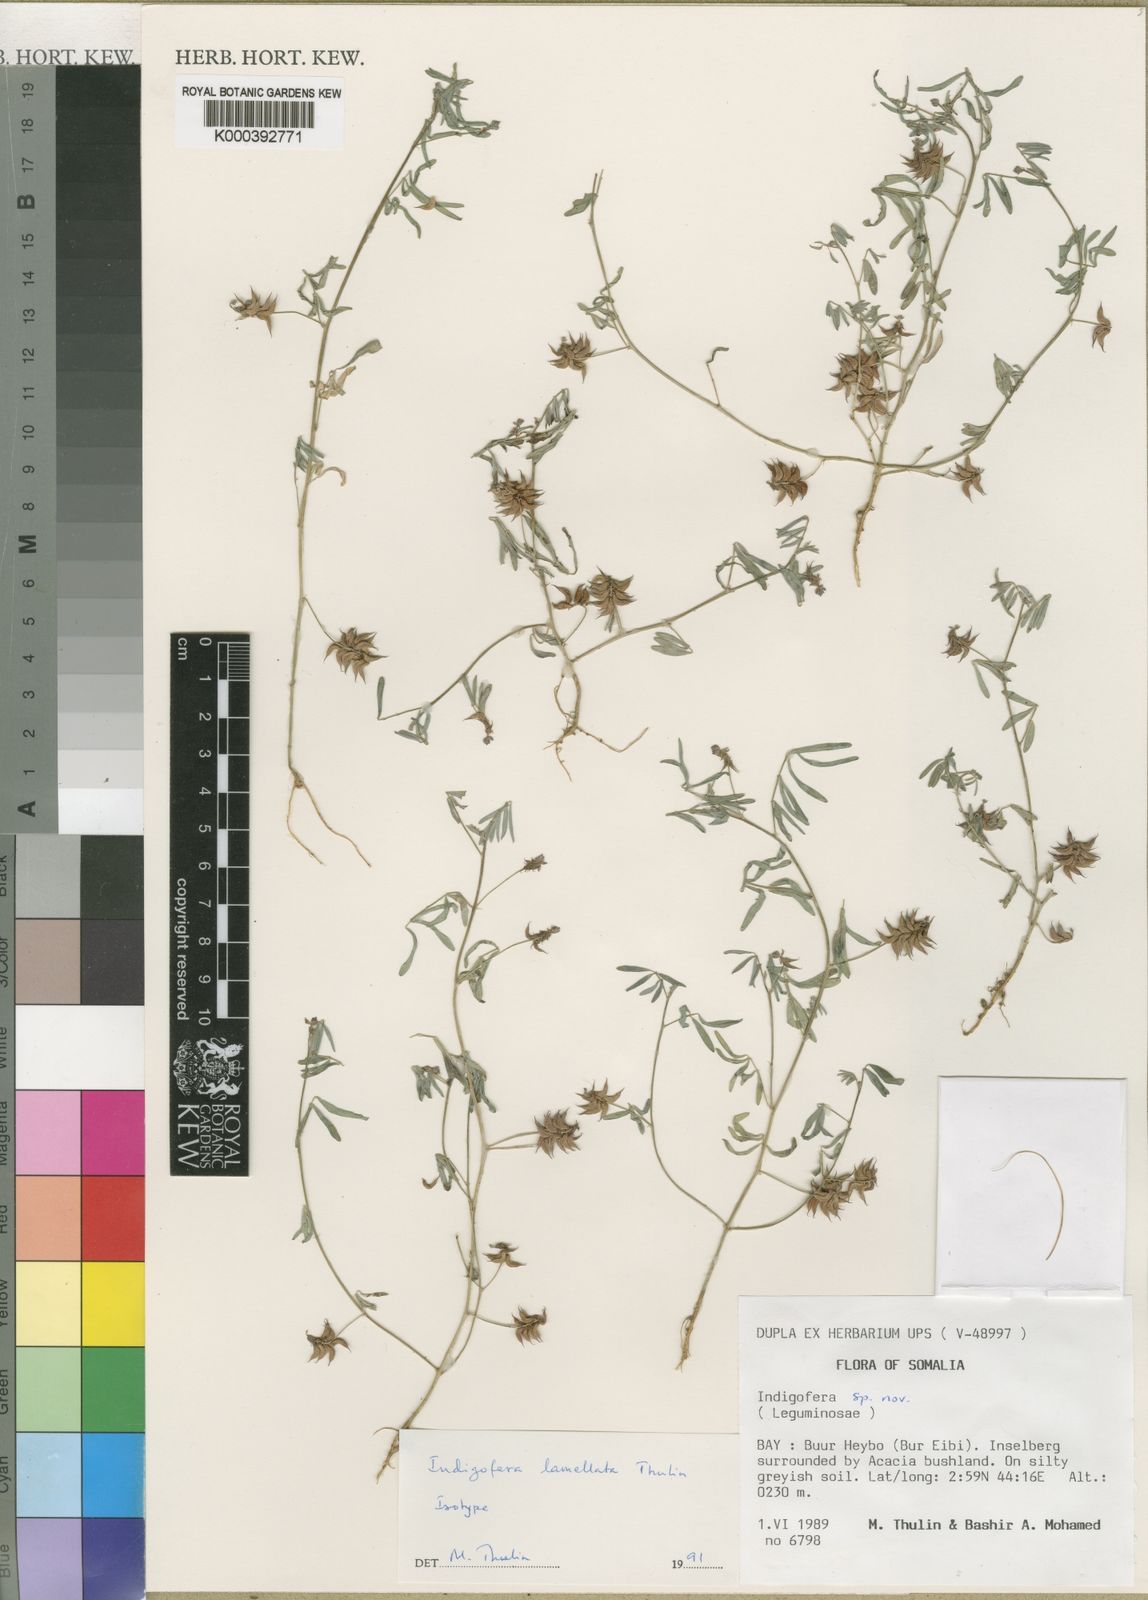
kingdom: Plantae
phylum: Tracheophyta
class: Magnoliopsida
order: Fabales
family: Fabaceae
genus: Indigofera
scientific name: Indigofera exellii
